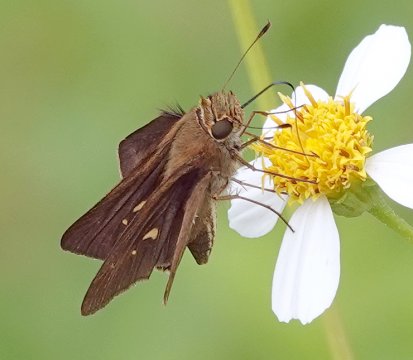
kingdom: Animalia
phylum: Arthropoda
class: Insecta
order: Lepidoptera
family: Hesperiidae
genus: Panoquina
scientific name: Panoquina ocola
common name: Ocola Skipper
